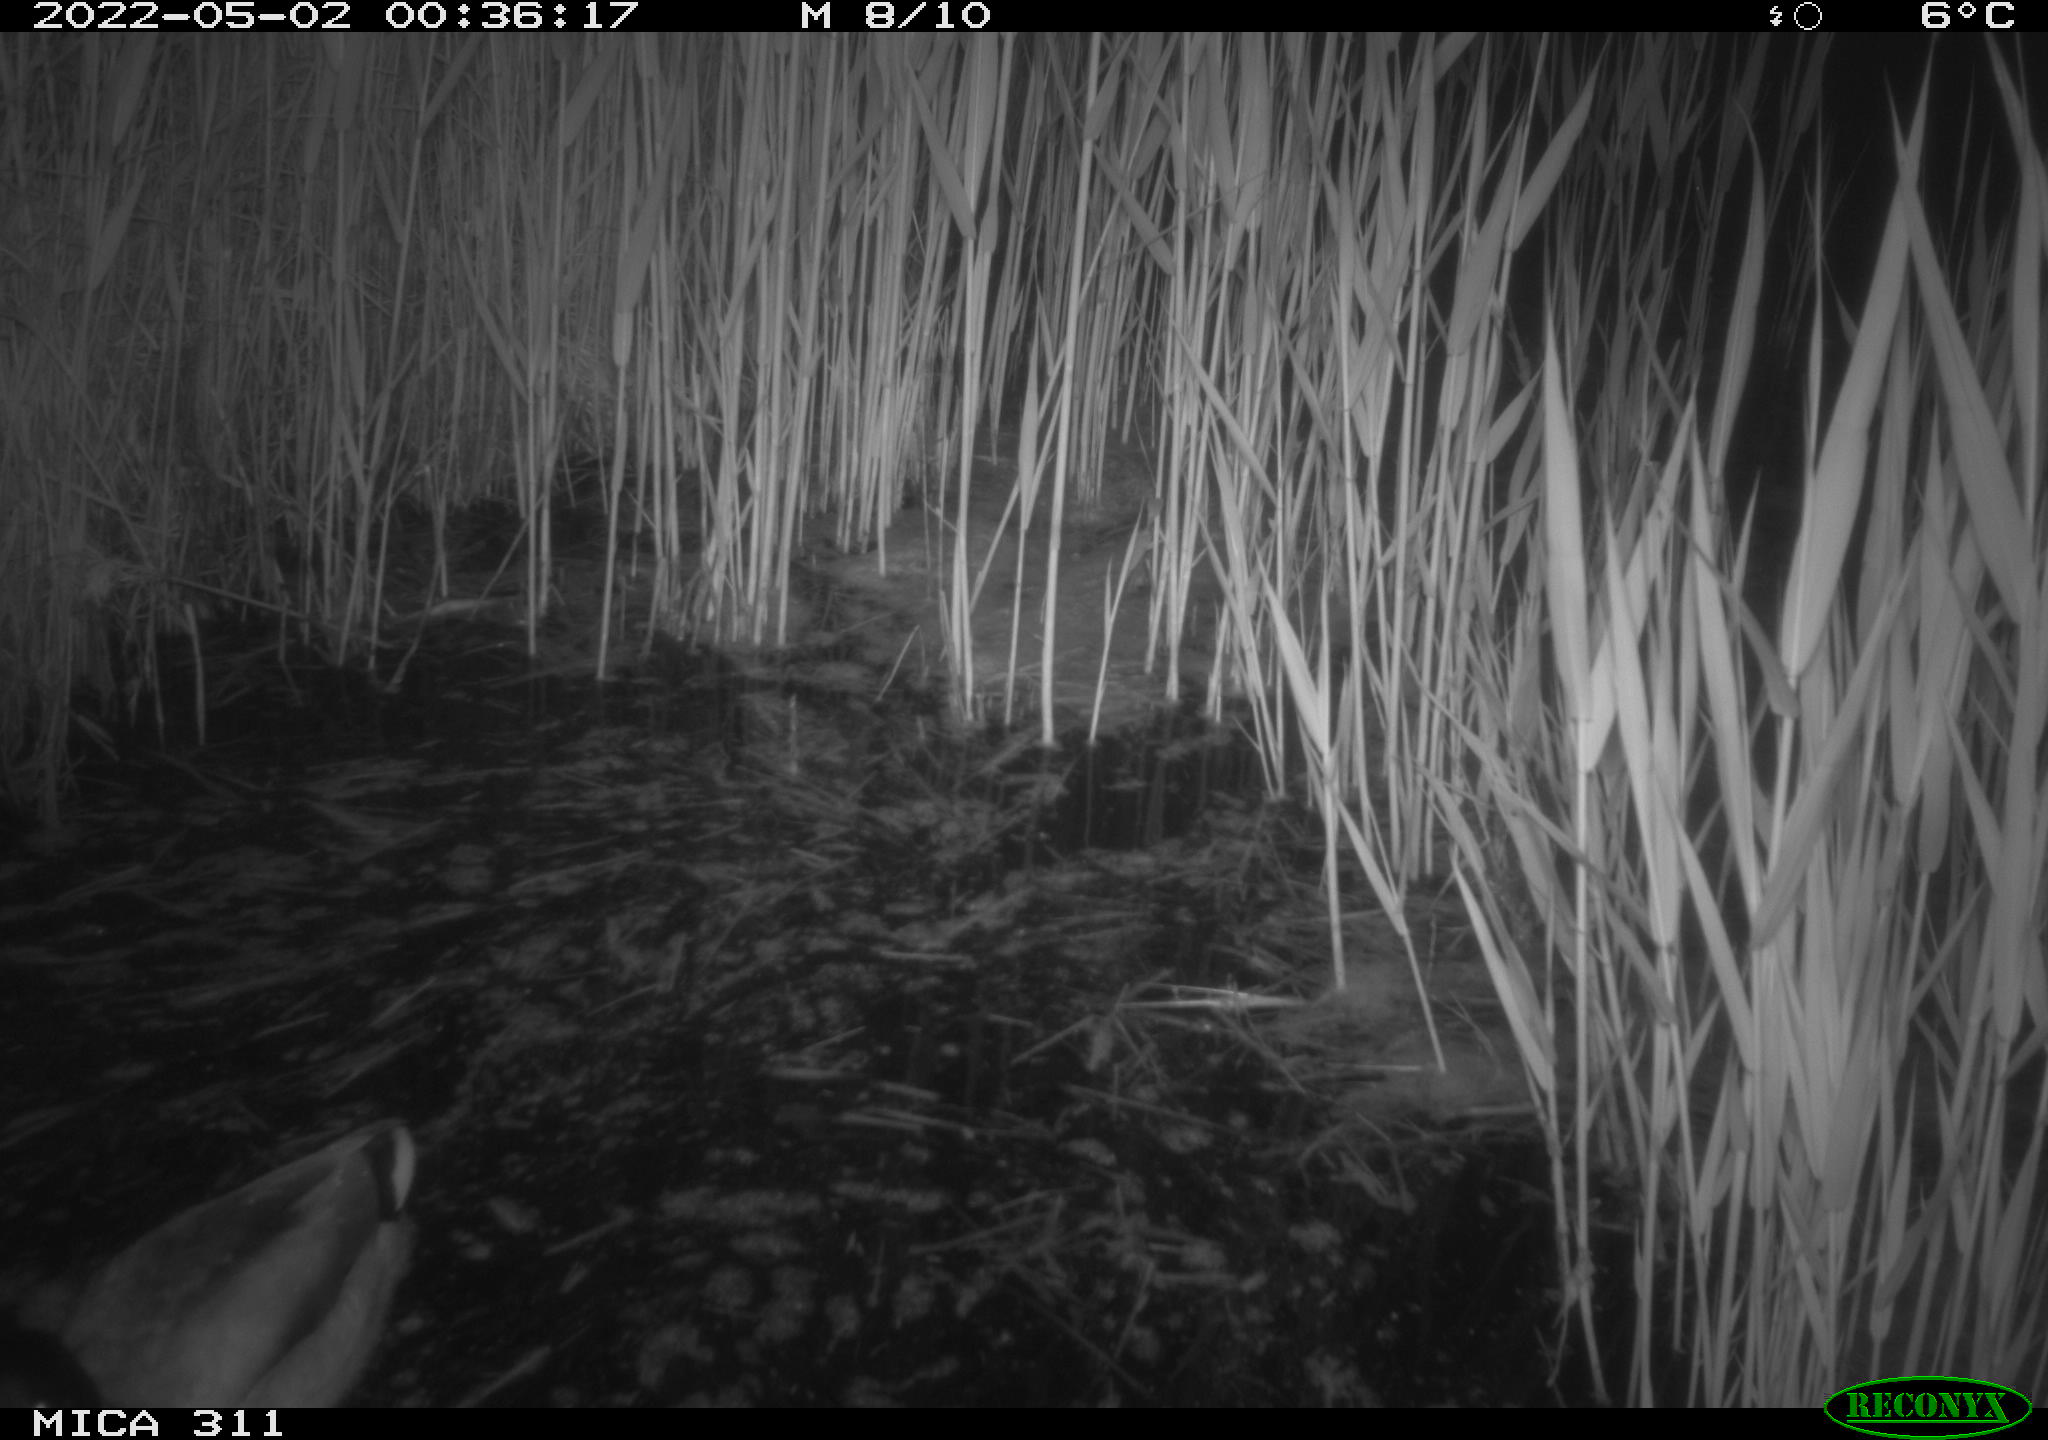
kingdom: Animalia
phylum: Chordata
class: Aves
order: Anseriformes
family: Anatidae
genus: Anas
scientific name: Anas platyrhynchos
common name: Mallard
